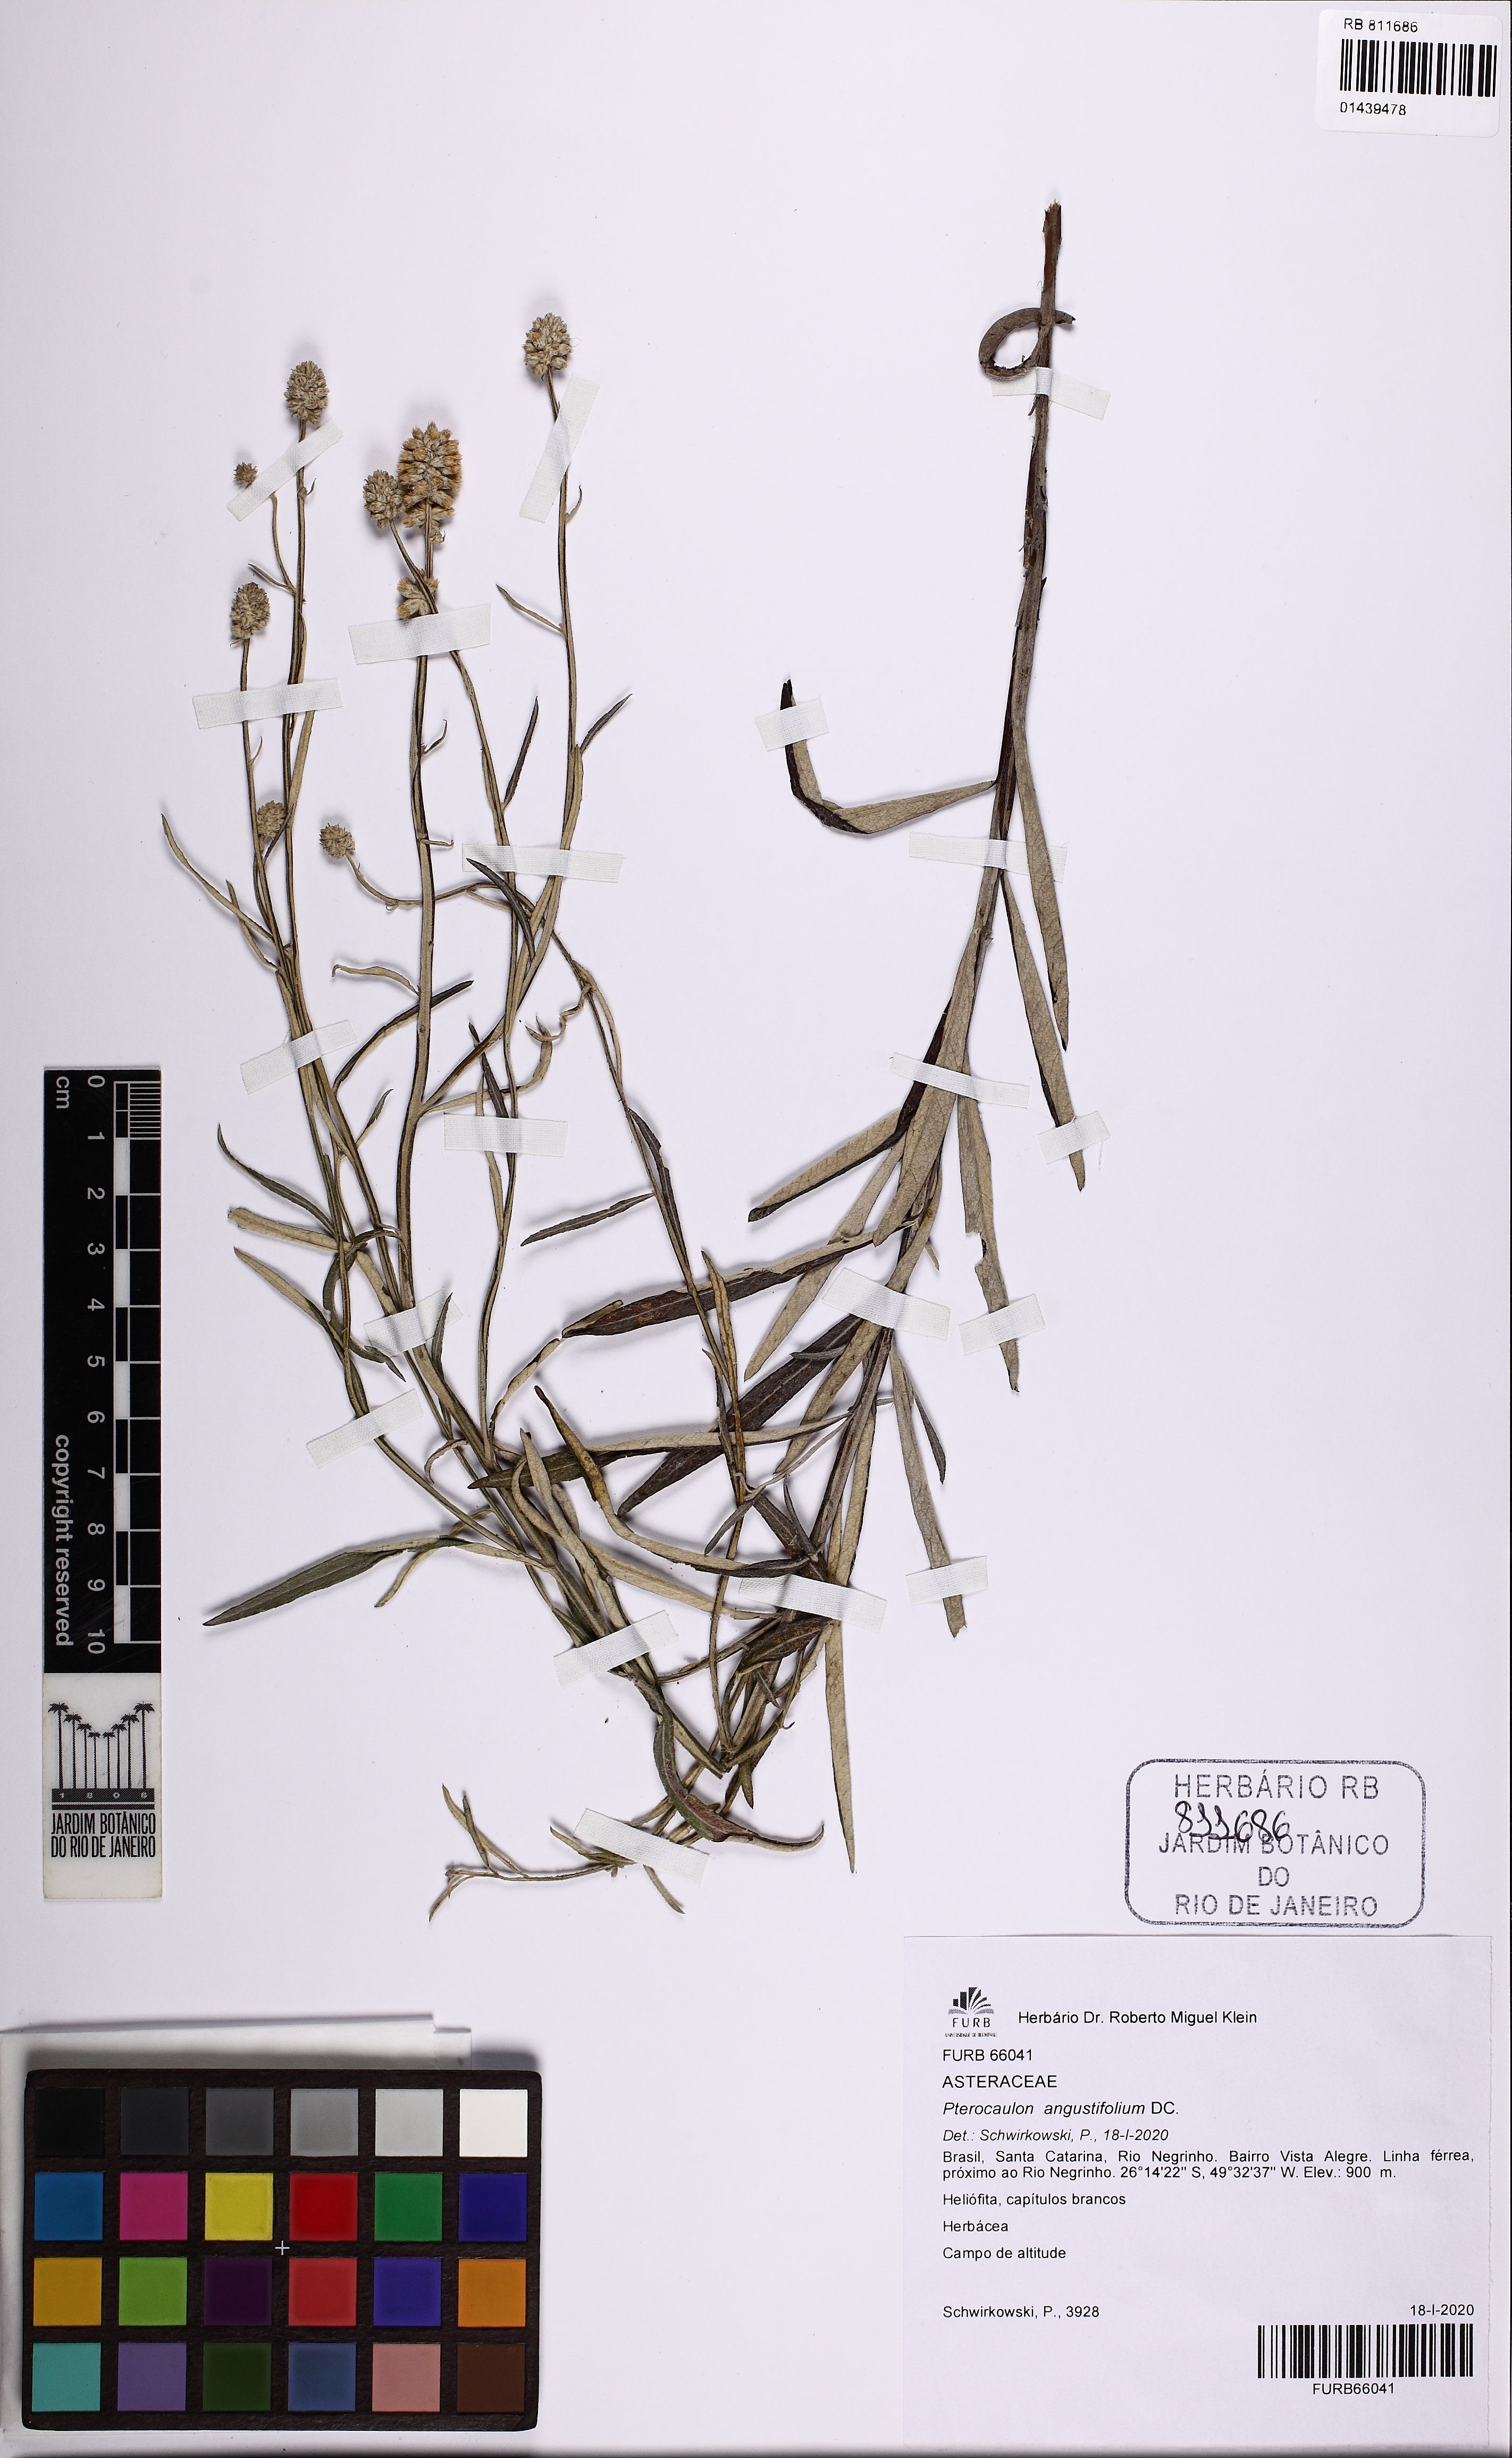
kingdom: Plantae
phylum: Tracheophyta
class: Magnoliopsida
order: Asterales
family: Asteraceae
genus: Pterocaulon
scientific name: Pterocaulon angustifolium
